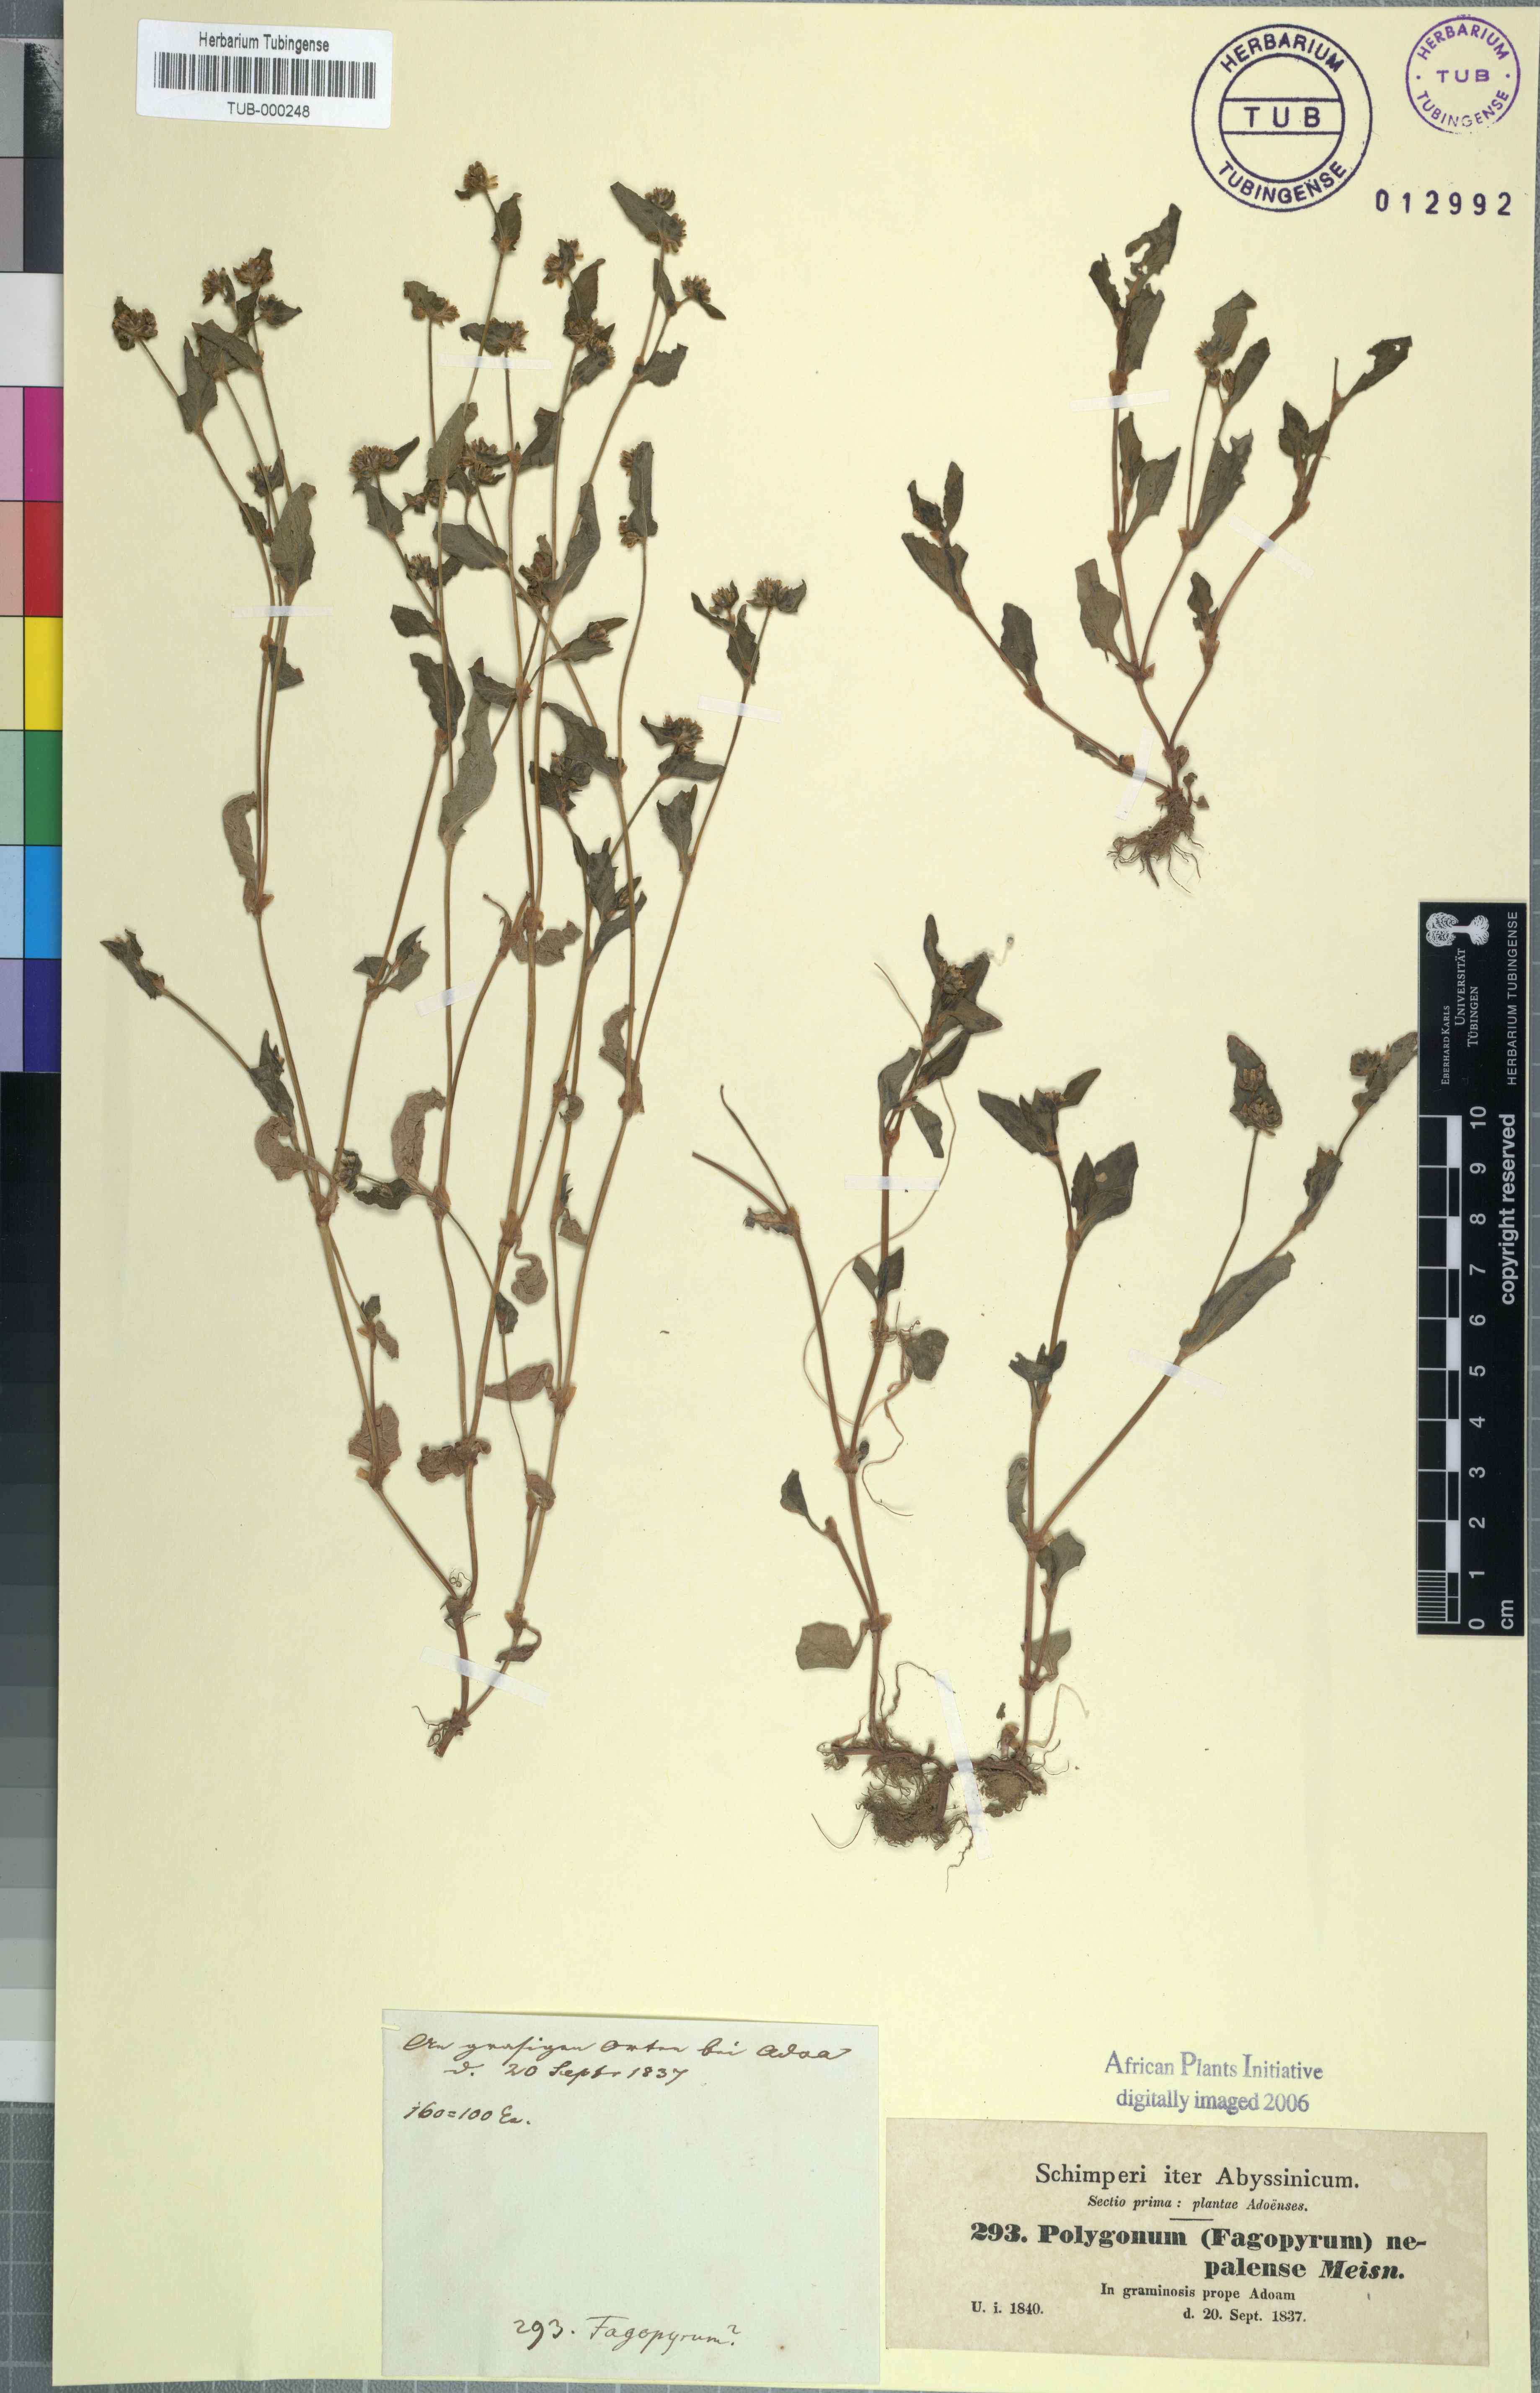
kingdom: Plantae
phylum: Tracheophyta
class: Magnoliopsida
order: Caryophyllales
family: Polygonaceae
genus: Persicaria
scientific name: Persicaria nepalensis
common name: Nepal persicaria
